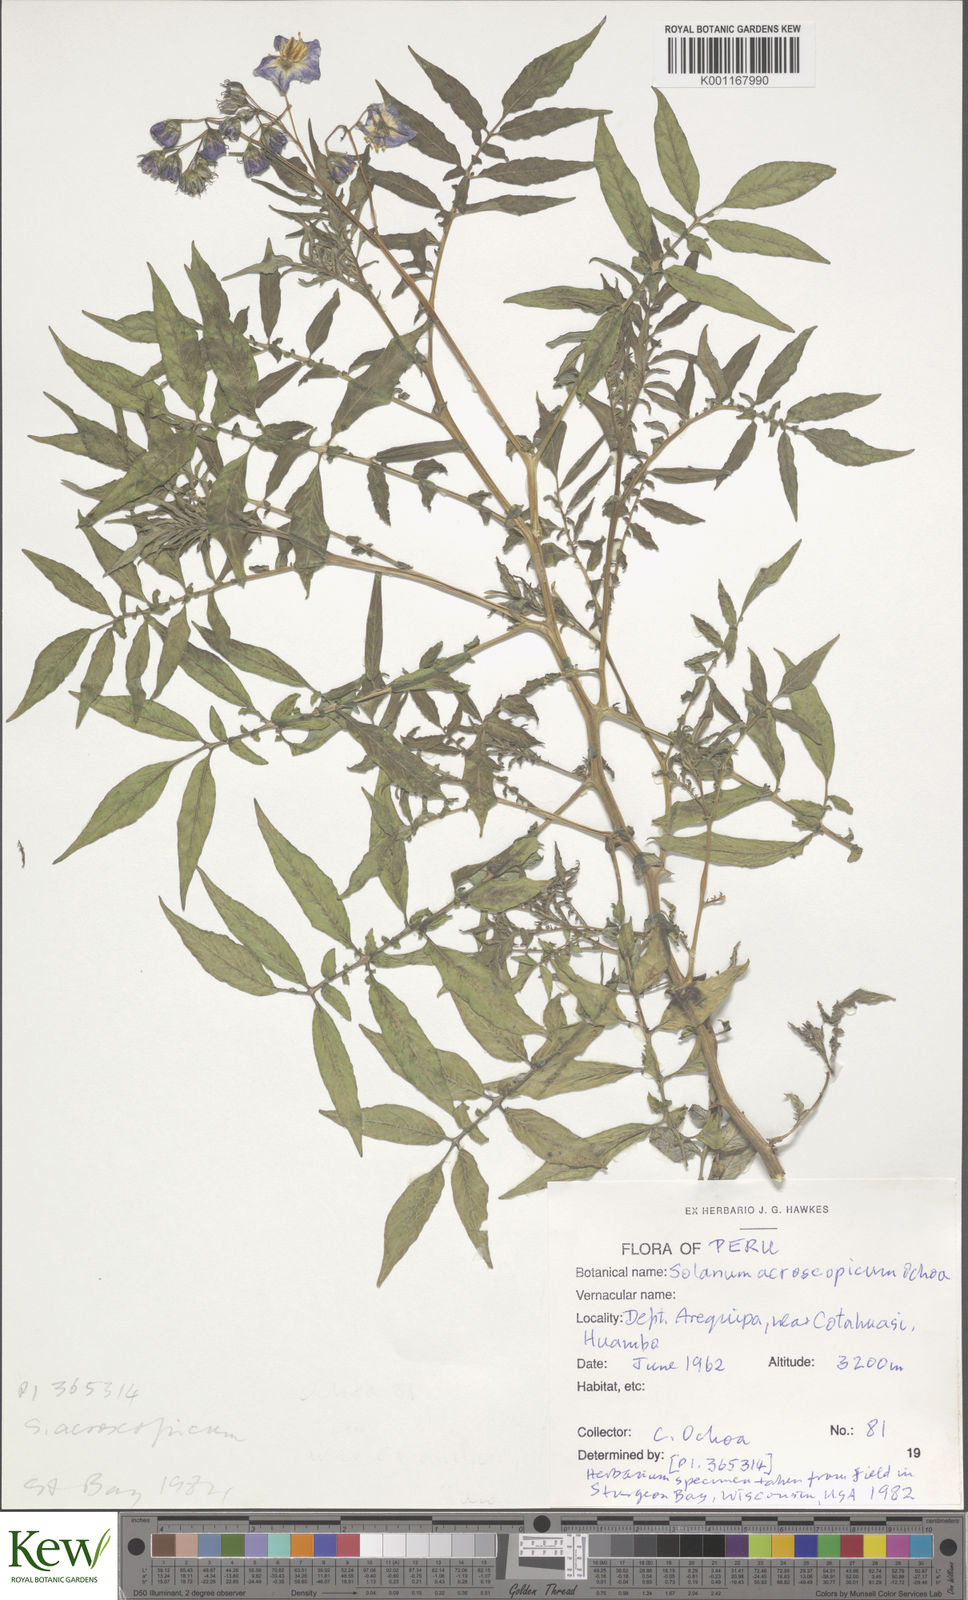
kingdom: Plantae
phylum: Tracheophyta
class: Magnoliopsida
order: Solanales
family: Solanaceae
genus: Solanum
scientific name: Solanum acroscopicum
